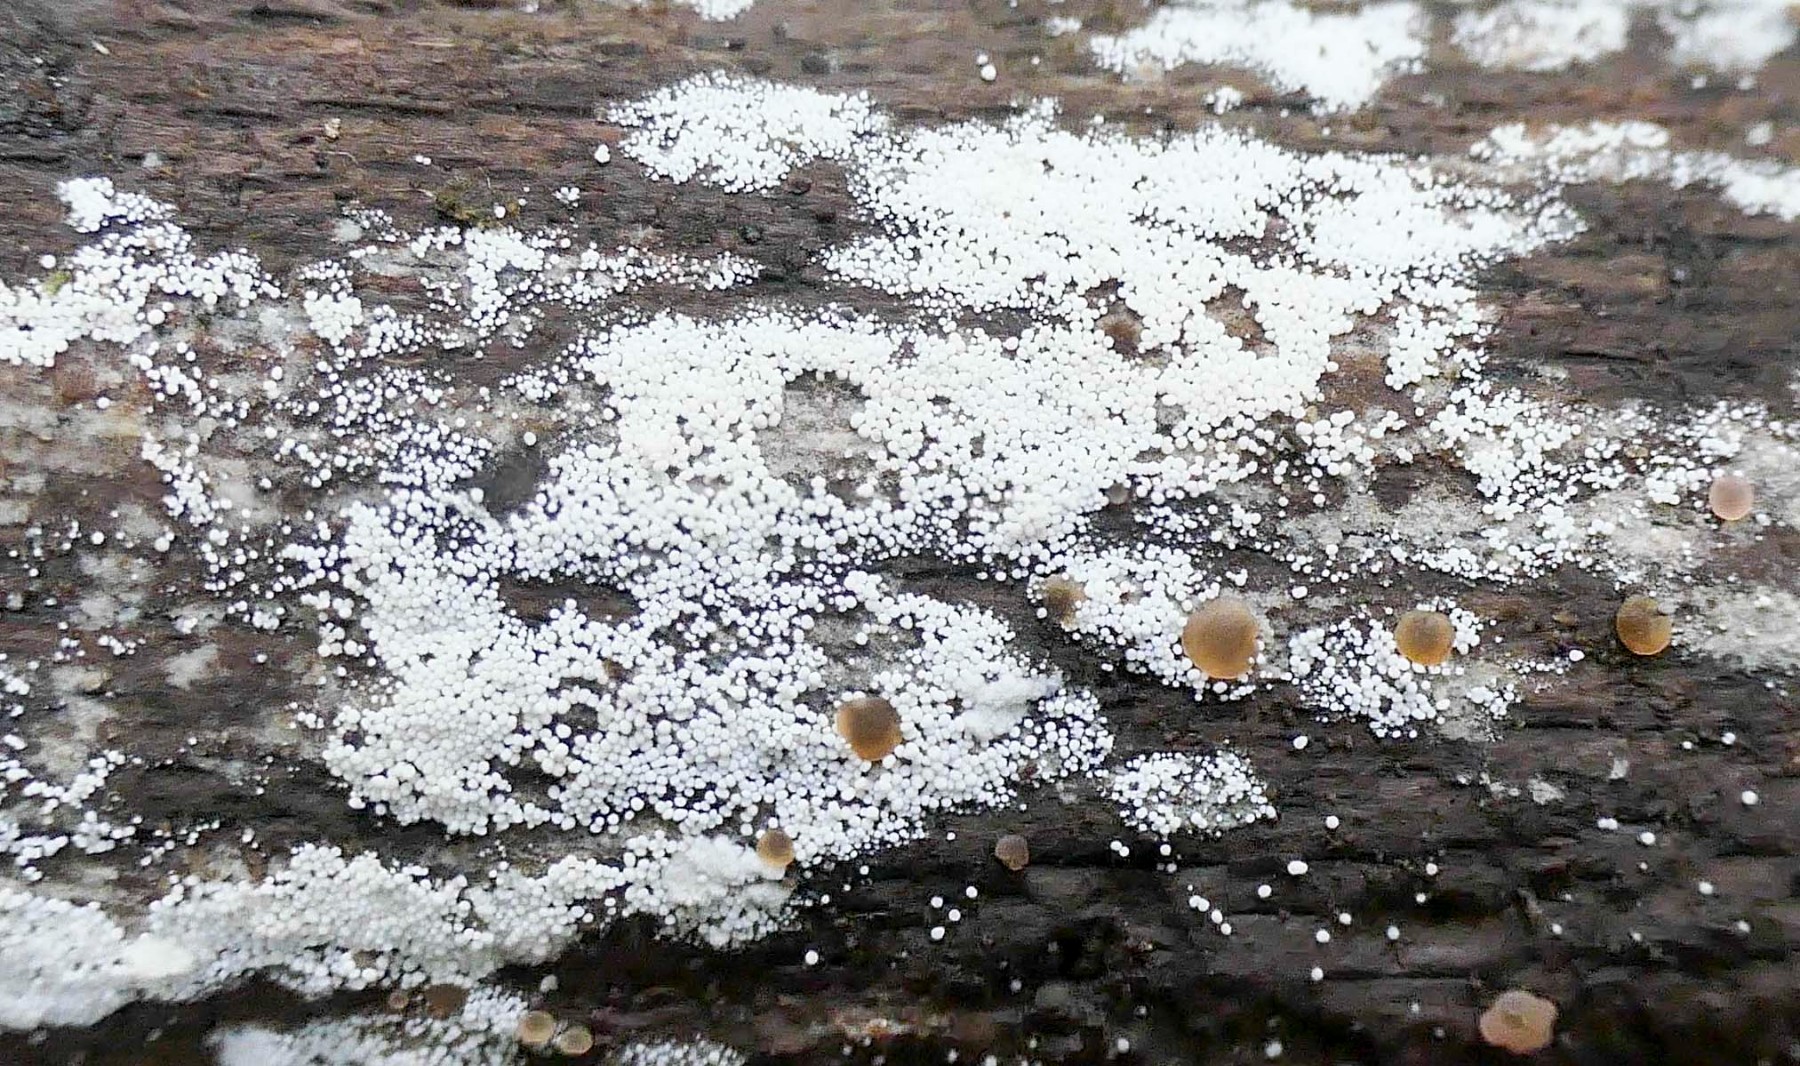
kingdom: Fungi
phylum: Basidiomycota
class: Agaricomycetes
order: Polyporales
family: Meruliaceae
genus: Bulbillomyces
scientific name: Bulbillomyces farinosus
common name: æg-kalkskind
